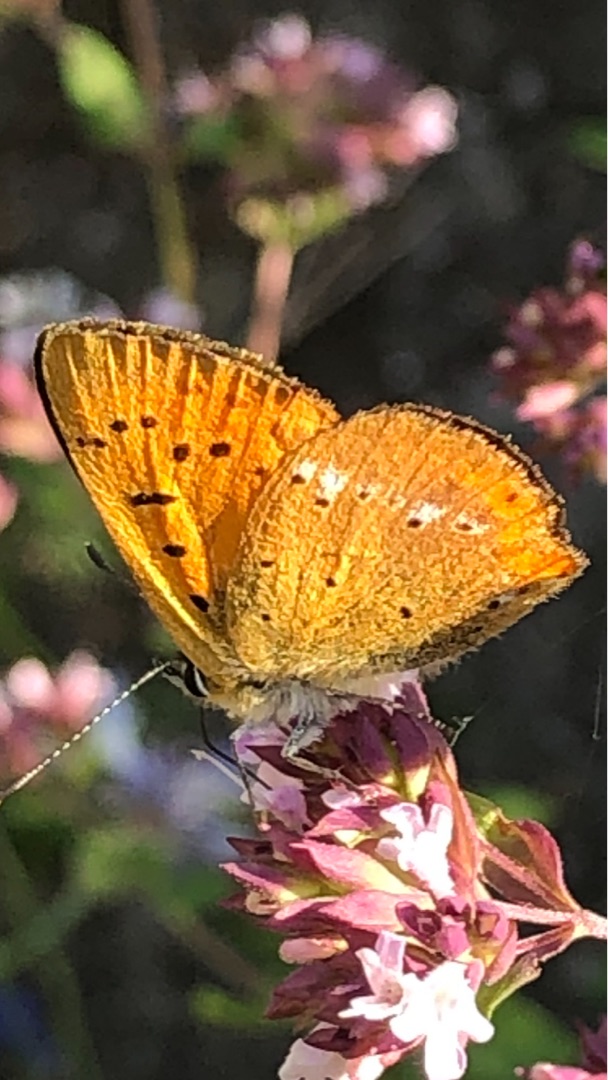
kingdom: Animalia
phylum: Arthropoda
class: Insecta
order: Lepidoptera
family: Lycaenidae
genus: Lycaena
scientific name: Lycaena virgaureae
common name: Dukatsommerfugl
